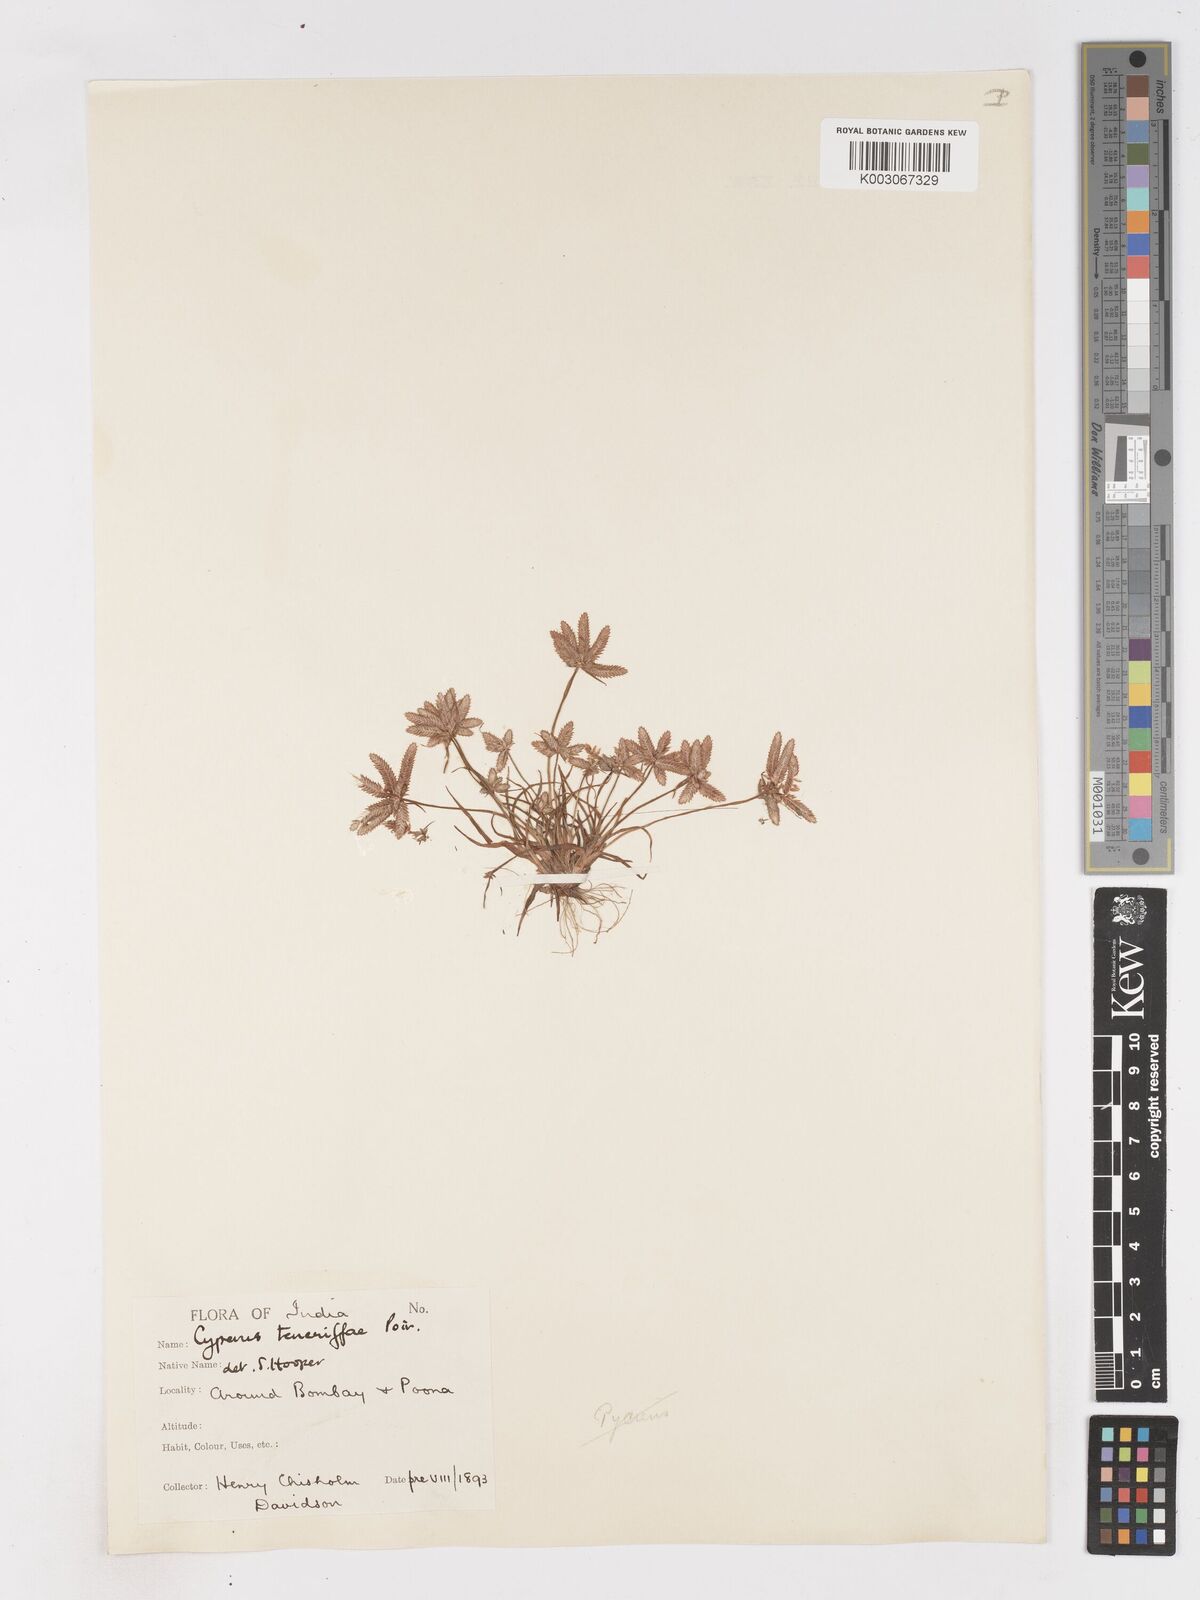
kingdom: Plantae
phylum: Tracheophyta
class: Liliopsida
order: Poales
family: Cyperaceae
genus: Cyperus
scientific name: Cyperus rubicundus
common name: Coco-grass
